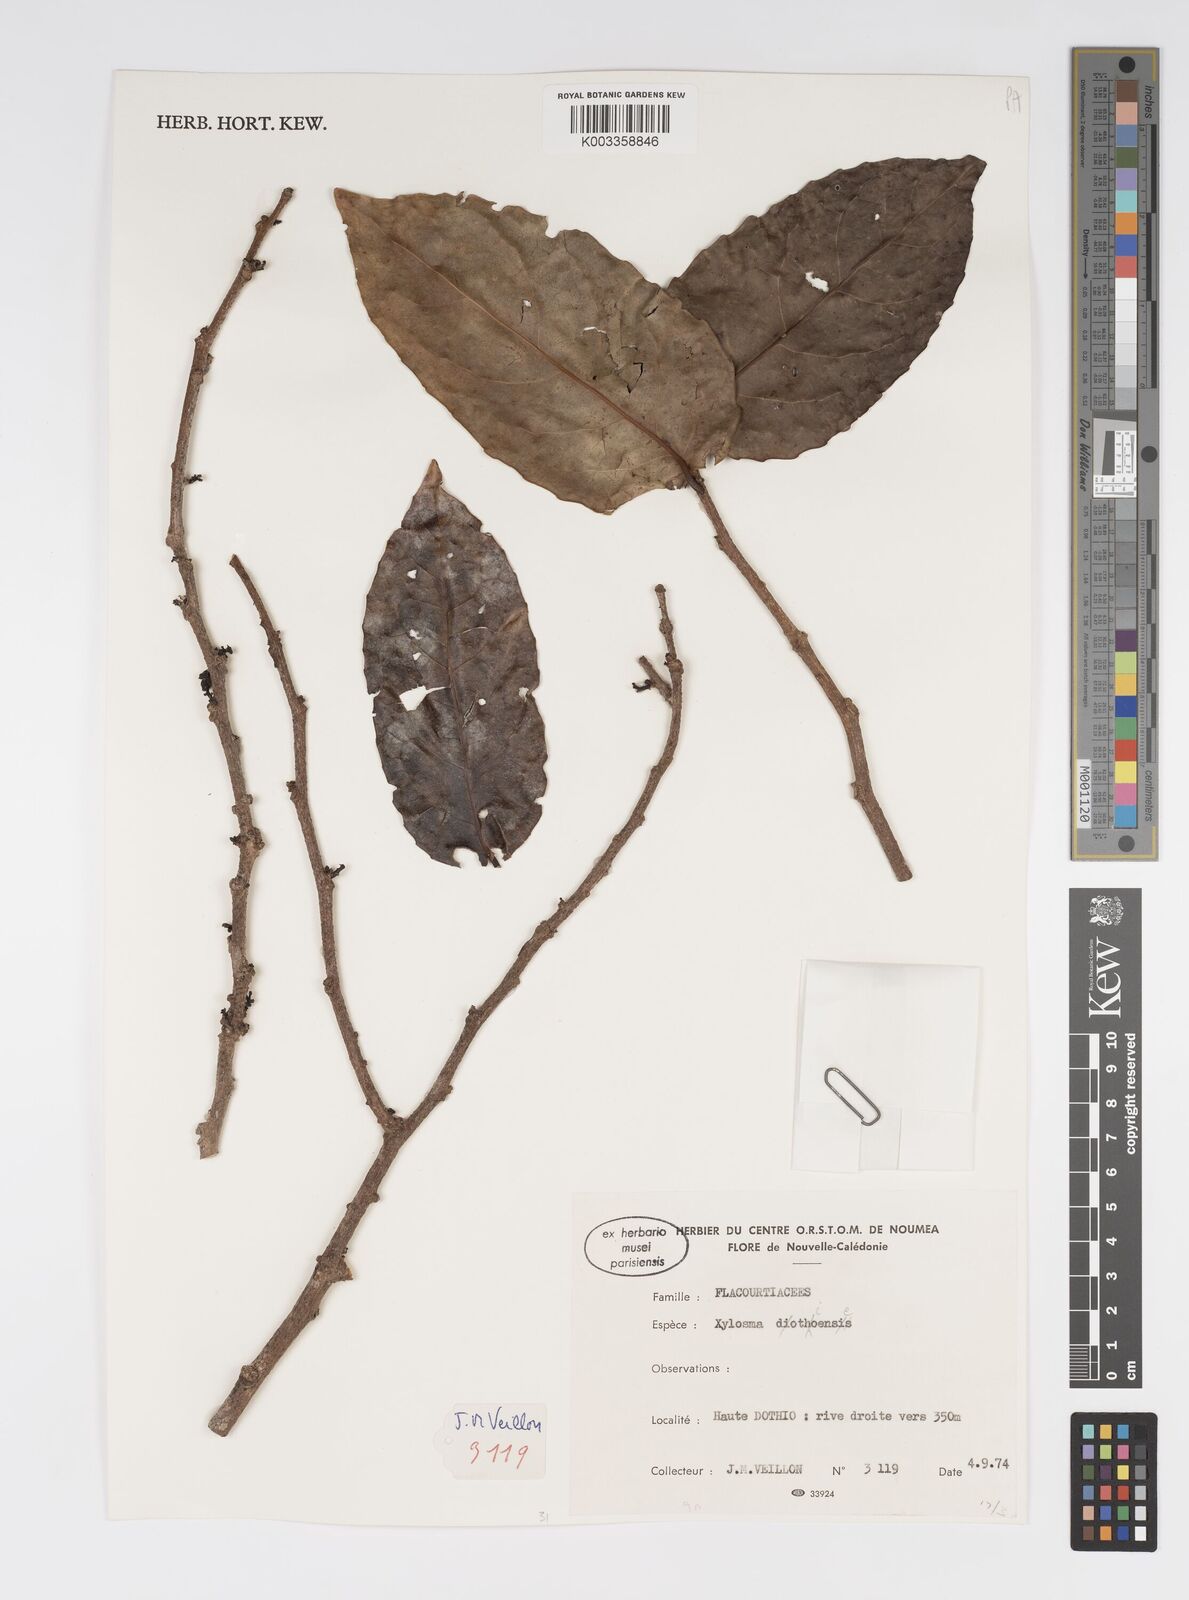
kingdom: Plantae
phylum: Tracheophyta
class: Magnoliopsida
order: Malpighiales
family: Salicaceae
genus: Xylosma
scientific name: Xylosma dothioensis
